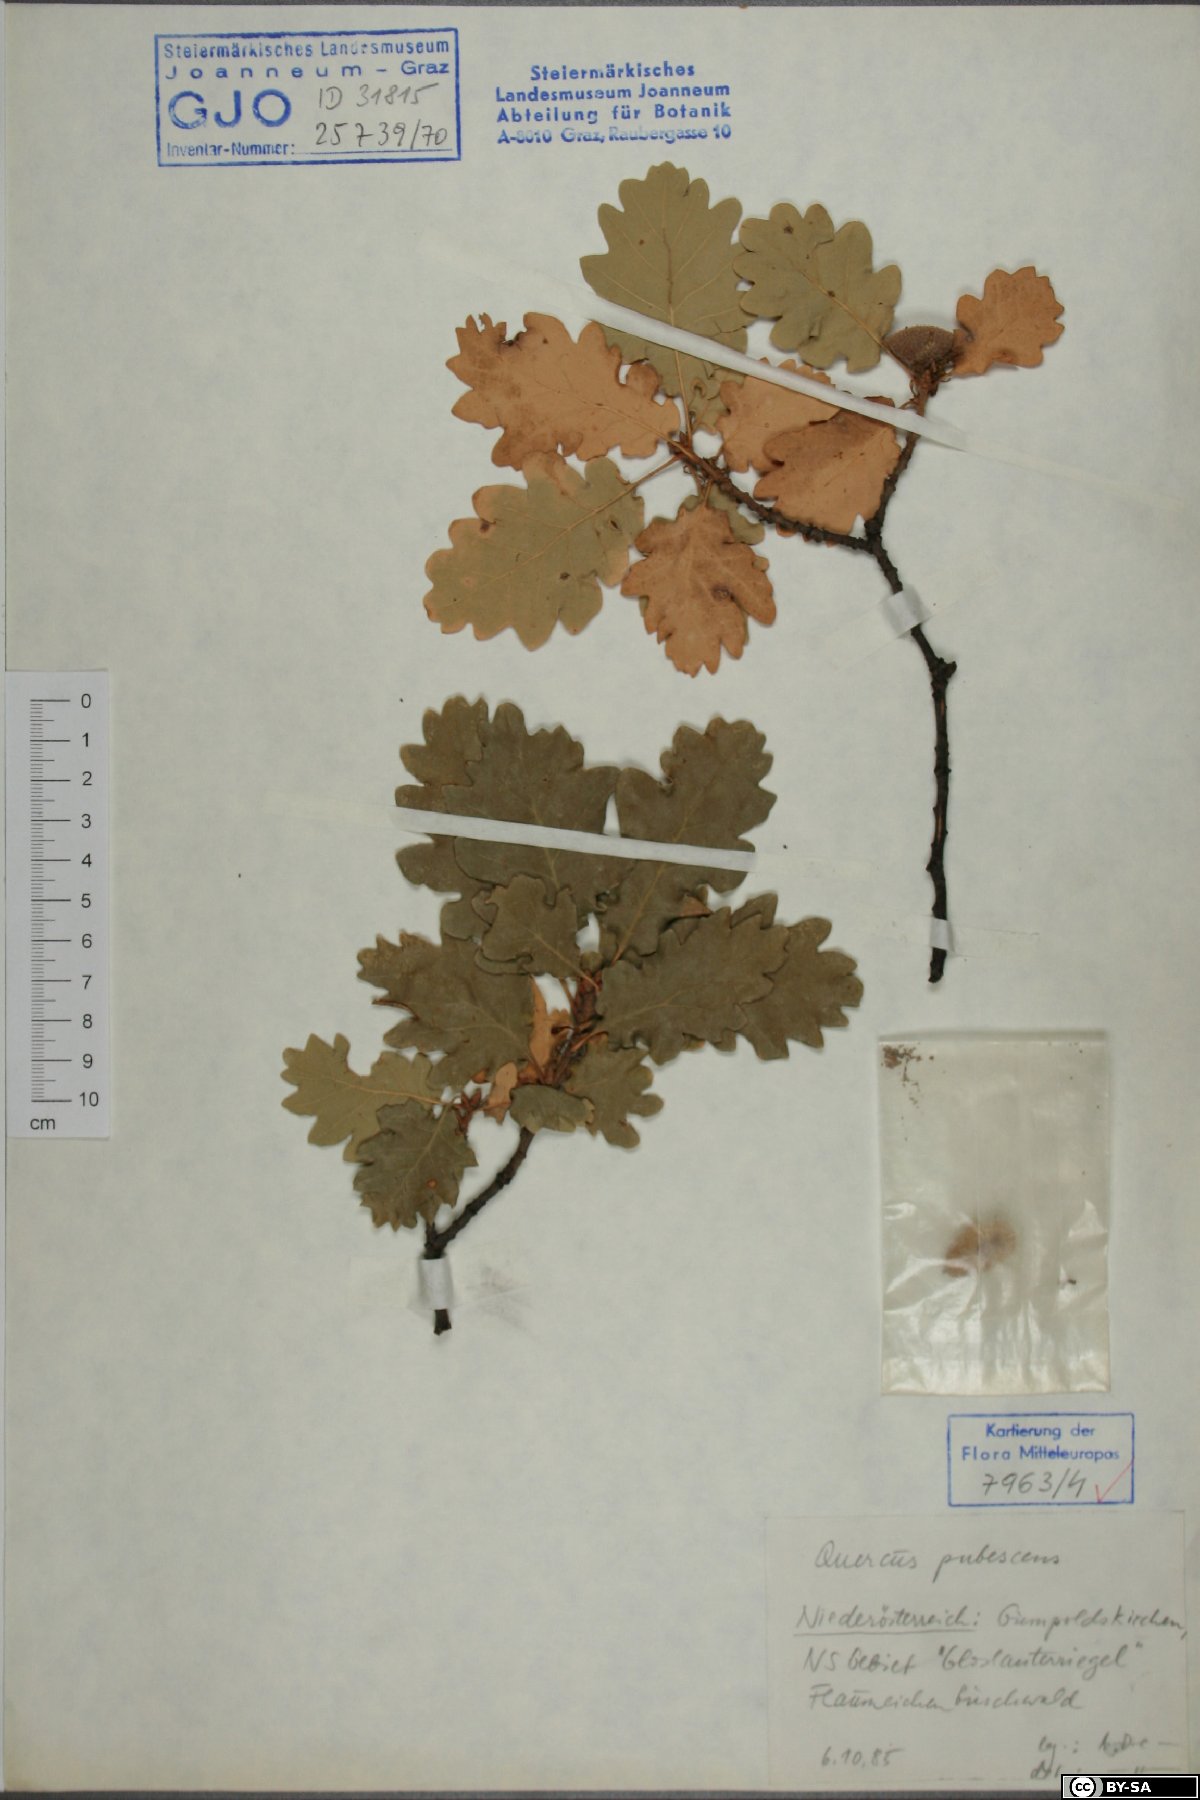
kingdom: Plantae
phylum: Tracheophyta
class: Magnoliopsida
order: Fagales
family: Fagaceae
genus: Quercus
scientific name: Quercus pubescens
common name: Downy oak
